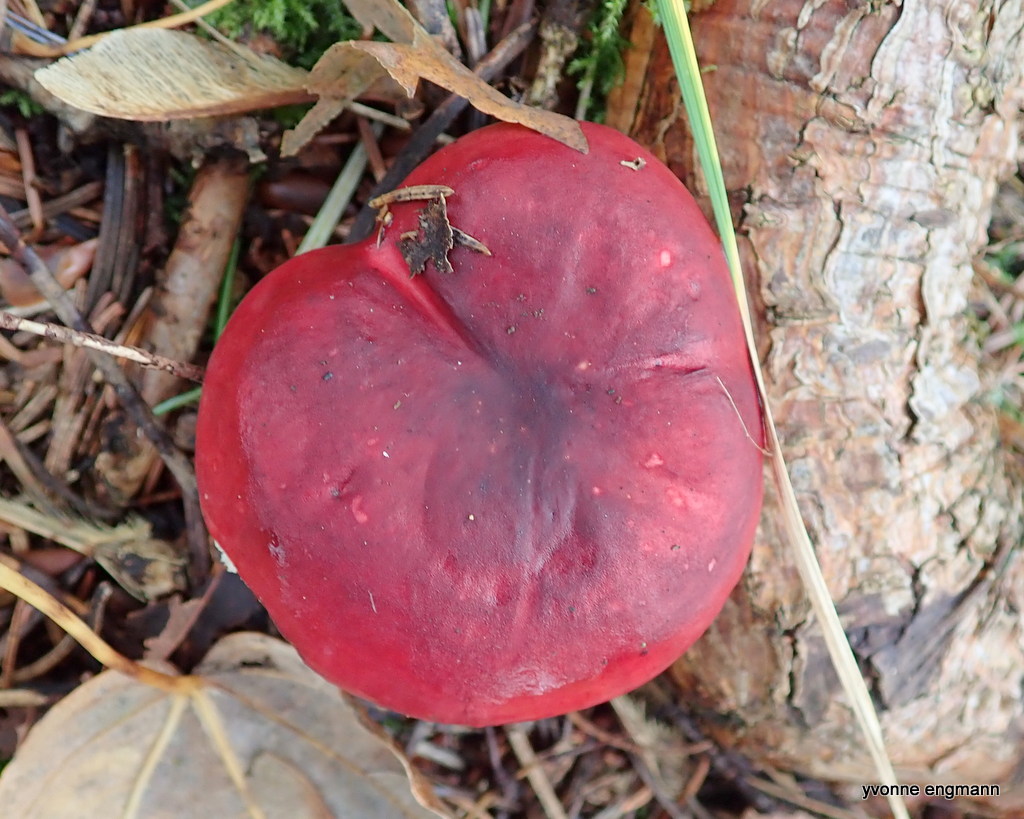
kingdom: Fungi
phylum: Basidiomycota
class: Agaricomycetes
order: Russulales
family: Russulaceae
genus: Russula
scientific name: Russula xerampelina
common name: hummer-skørhat
